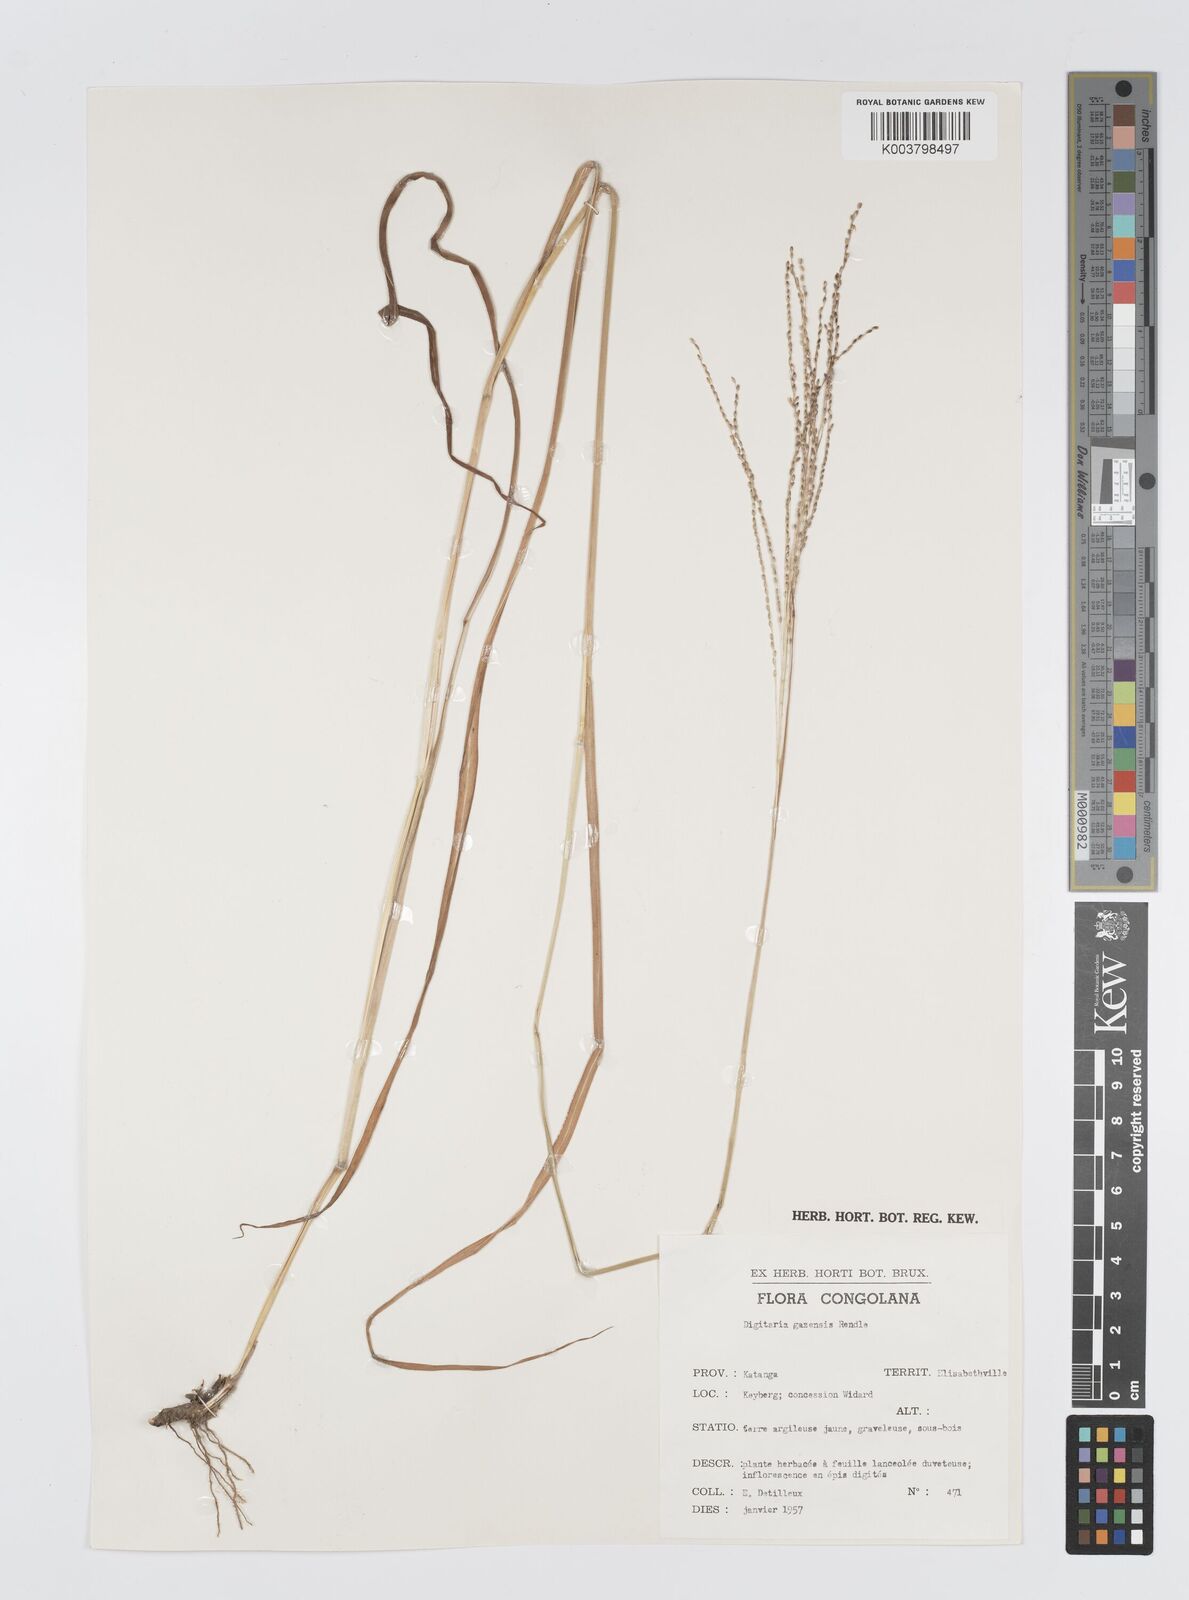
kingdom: Plantae
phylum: Tracheophyta
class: Liliopsida
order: Poales
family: Poaceae
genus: Digitaria
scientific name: Digitaria gazensis
